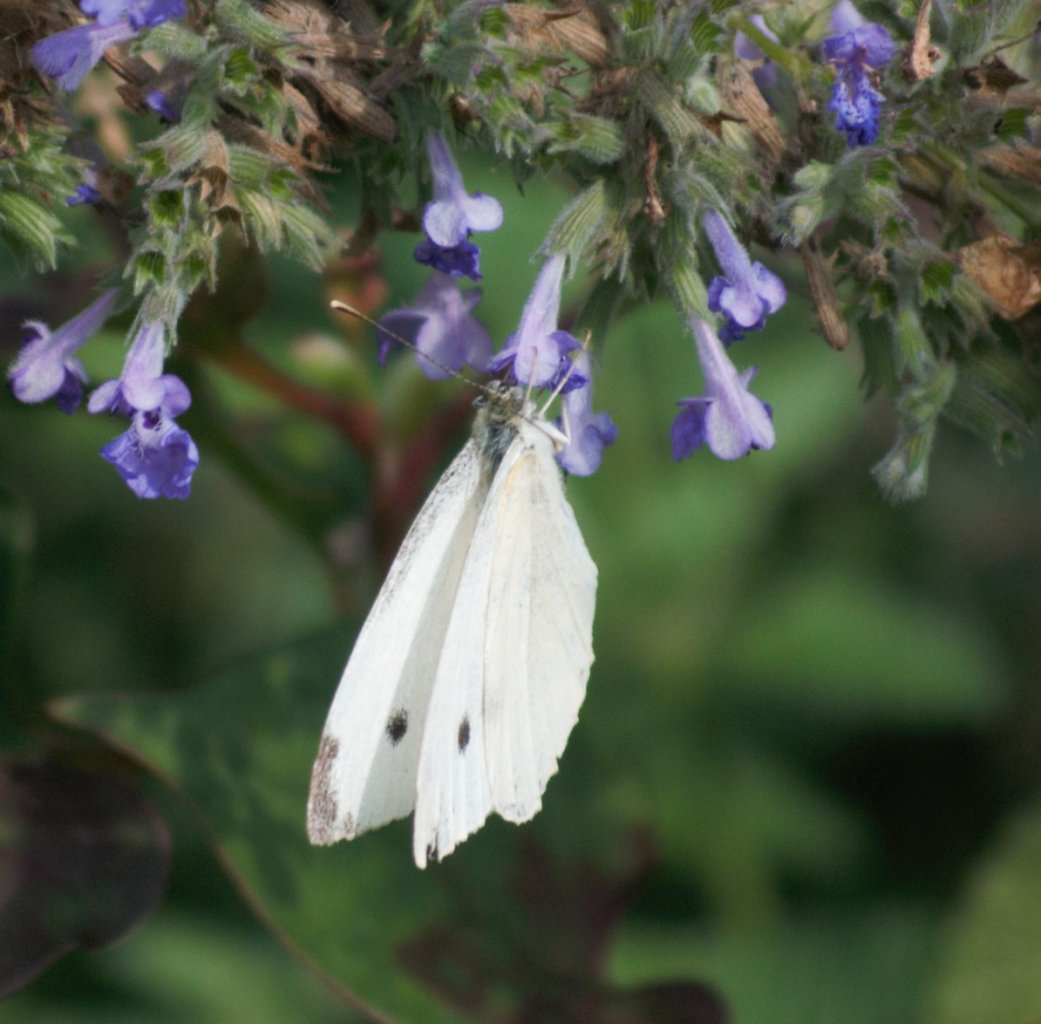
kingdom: Animalia
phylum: Arthropoda
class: Insecta
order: Lepidoptera
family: Pieridae
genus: Pieris
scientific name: Pieris rapae
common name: Cabbage White
